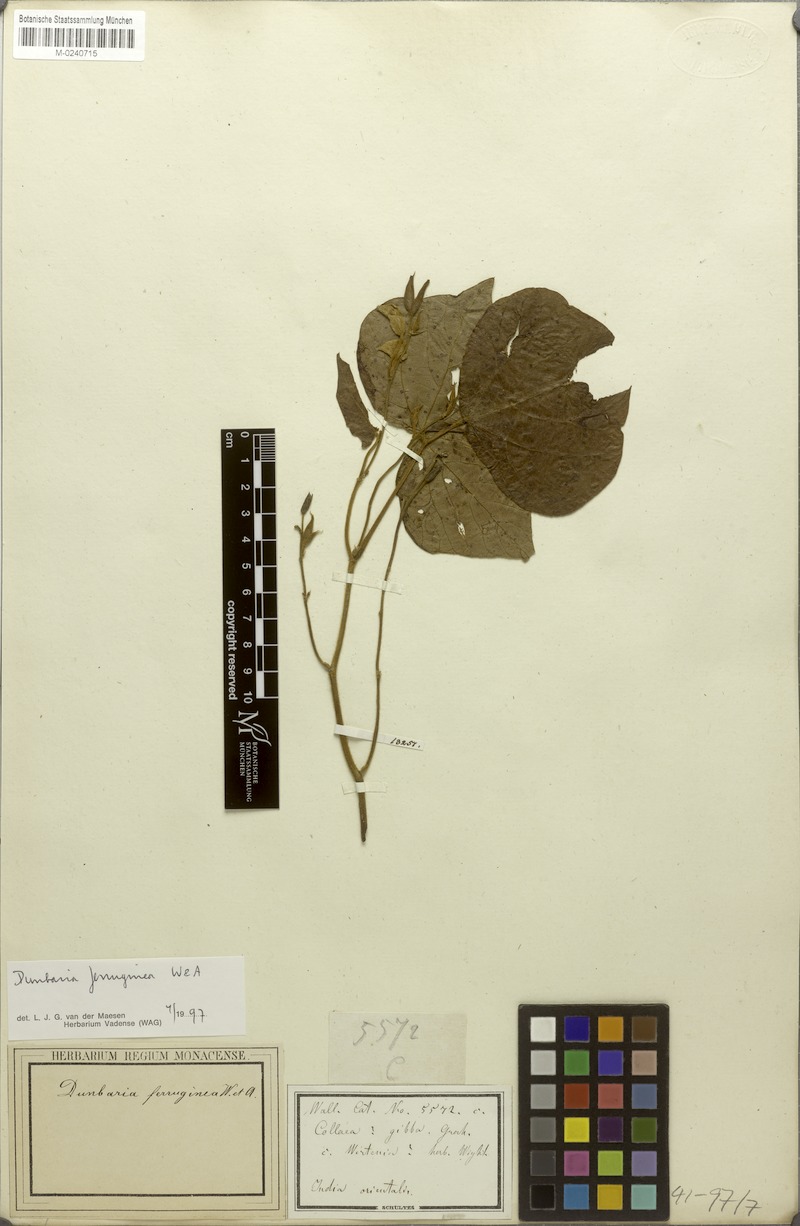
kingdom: Plantae
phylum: Tracheophyta
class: Magnoliopsida
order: Fabales
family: Fabaceae
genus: Dunbaria
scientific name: Dunbaria ferruginea
